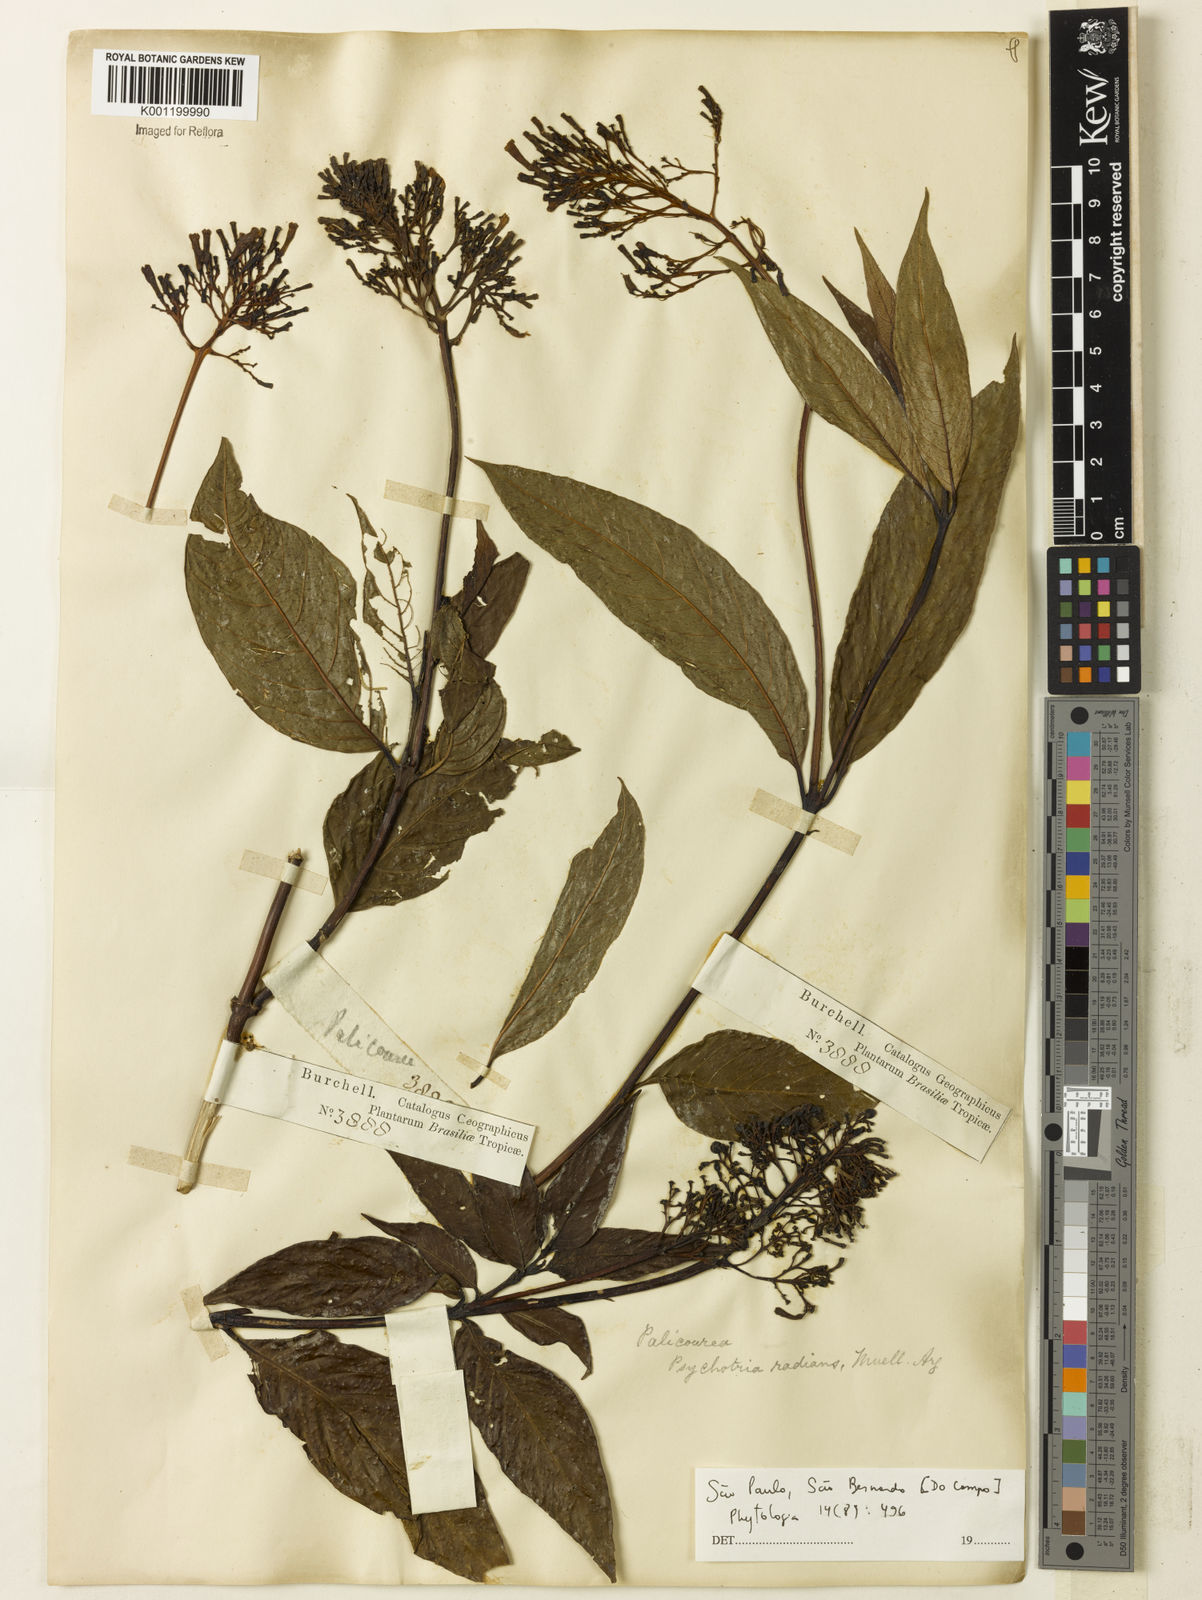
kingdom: Plantae
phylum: Tracheophyta
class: Magnoliopsida
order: Gentianales
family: Rubiaceae
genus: Palicourea
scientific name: Palicourea
